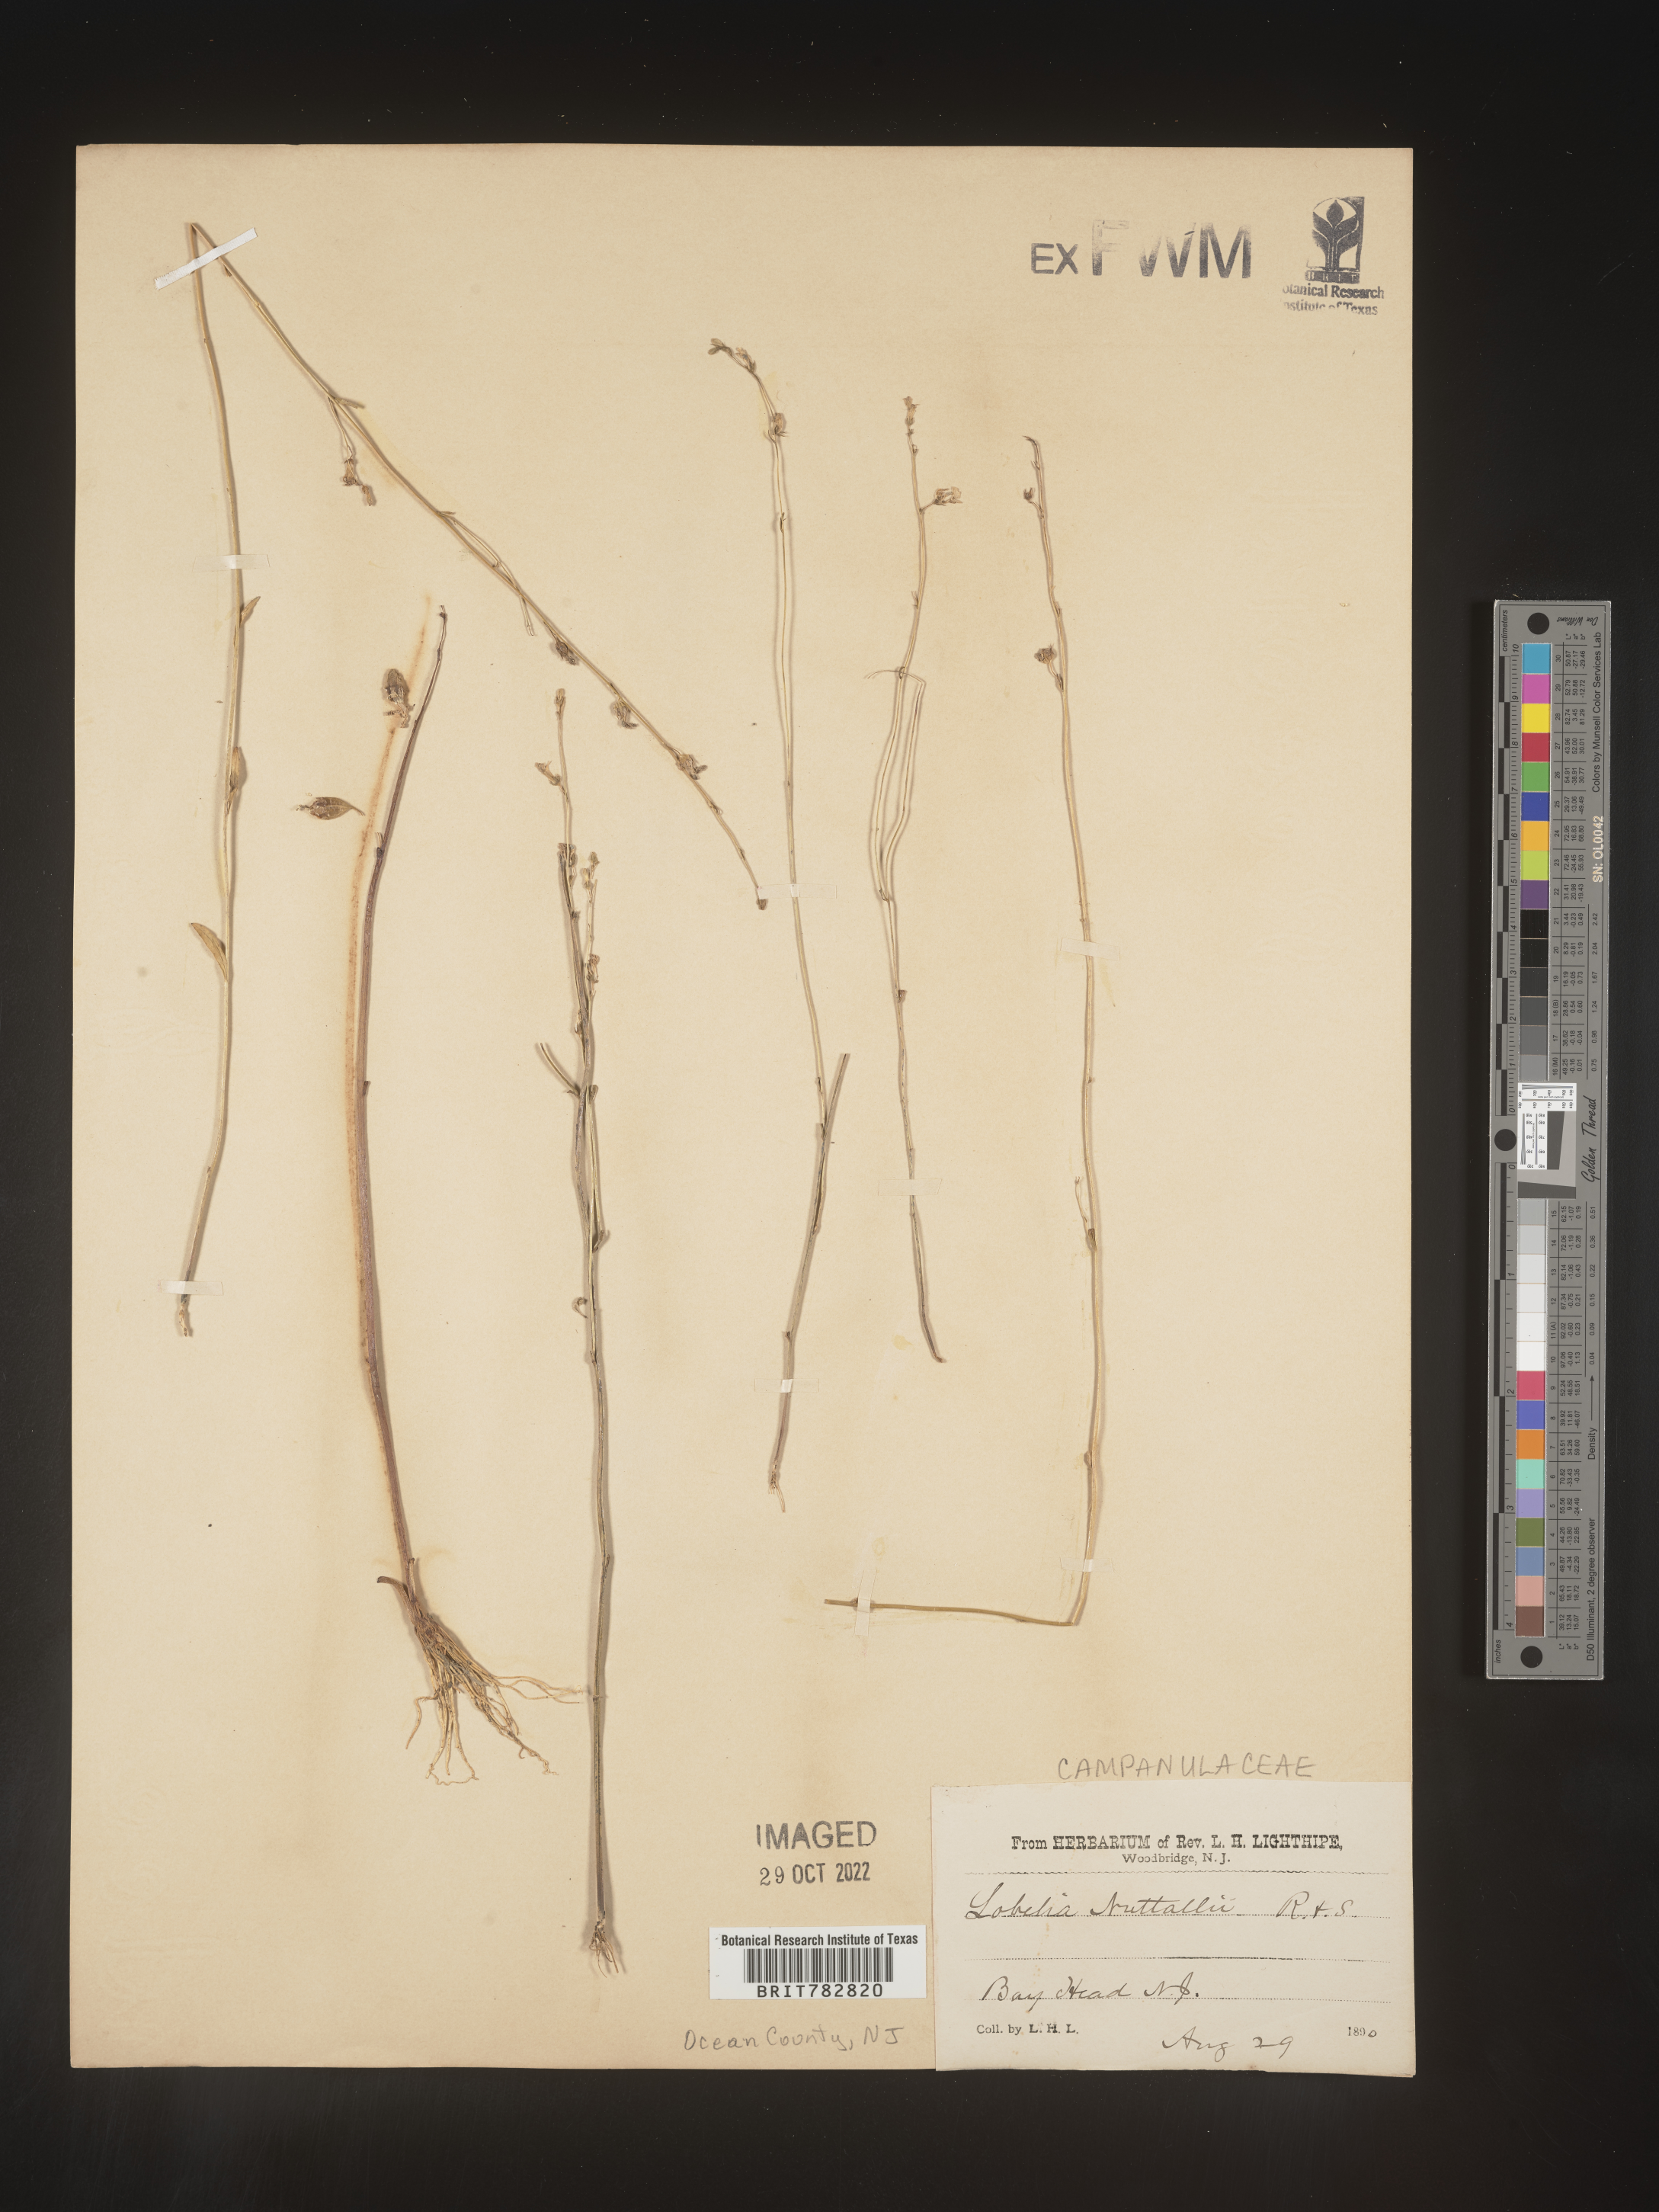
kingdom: Plantae
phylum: Tracheophyta
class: Magnoliopsida
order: Asterales
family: Campanulaceae
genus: Lobelia
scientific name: Lobelia nuttallii
